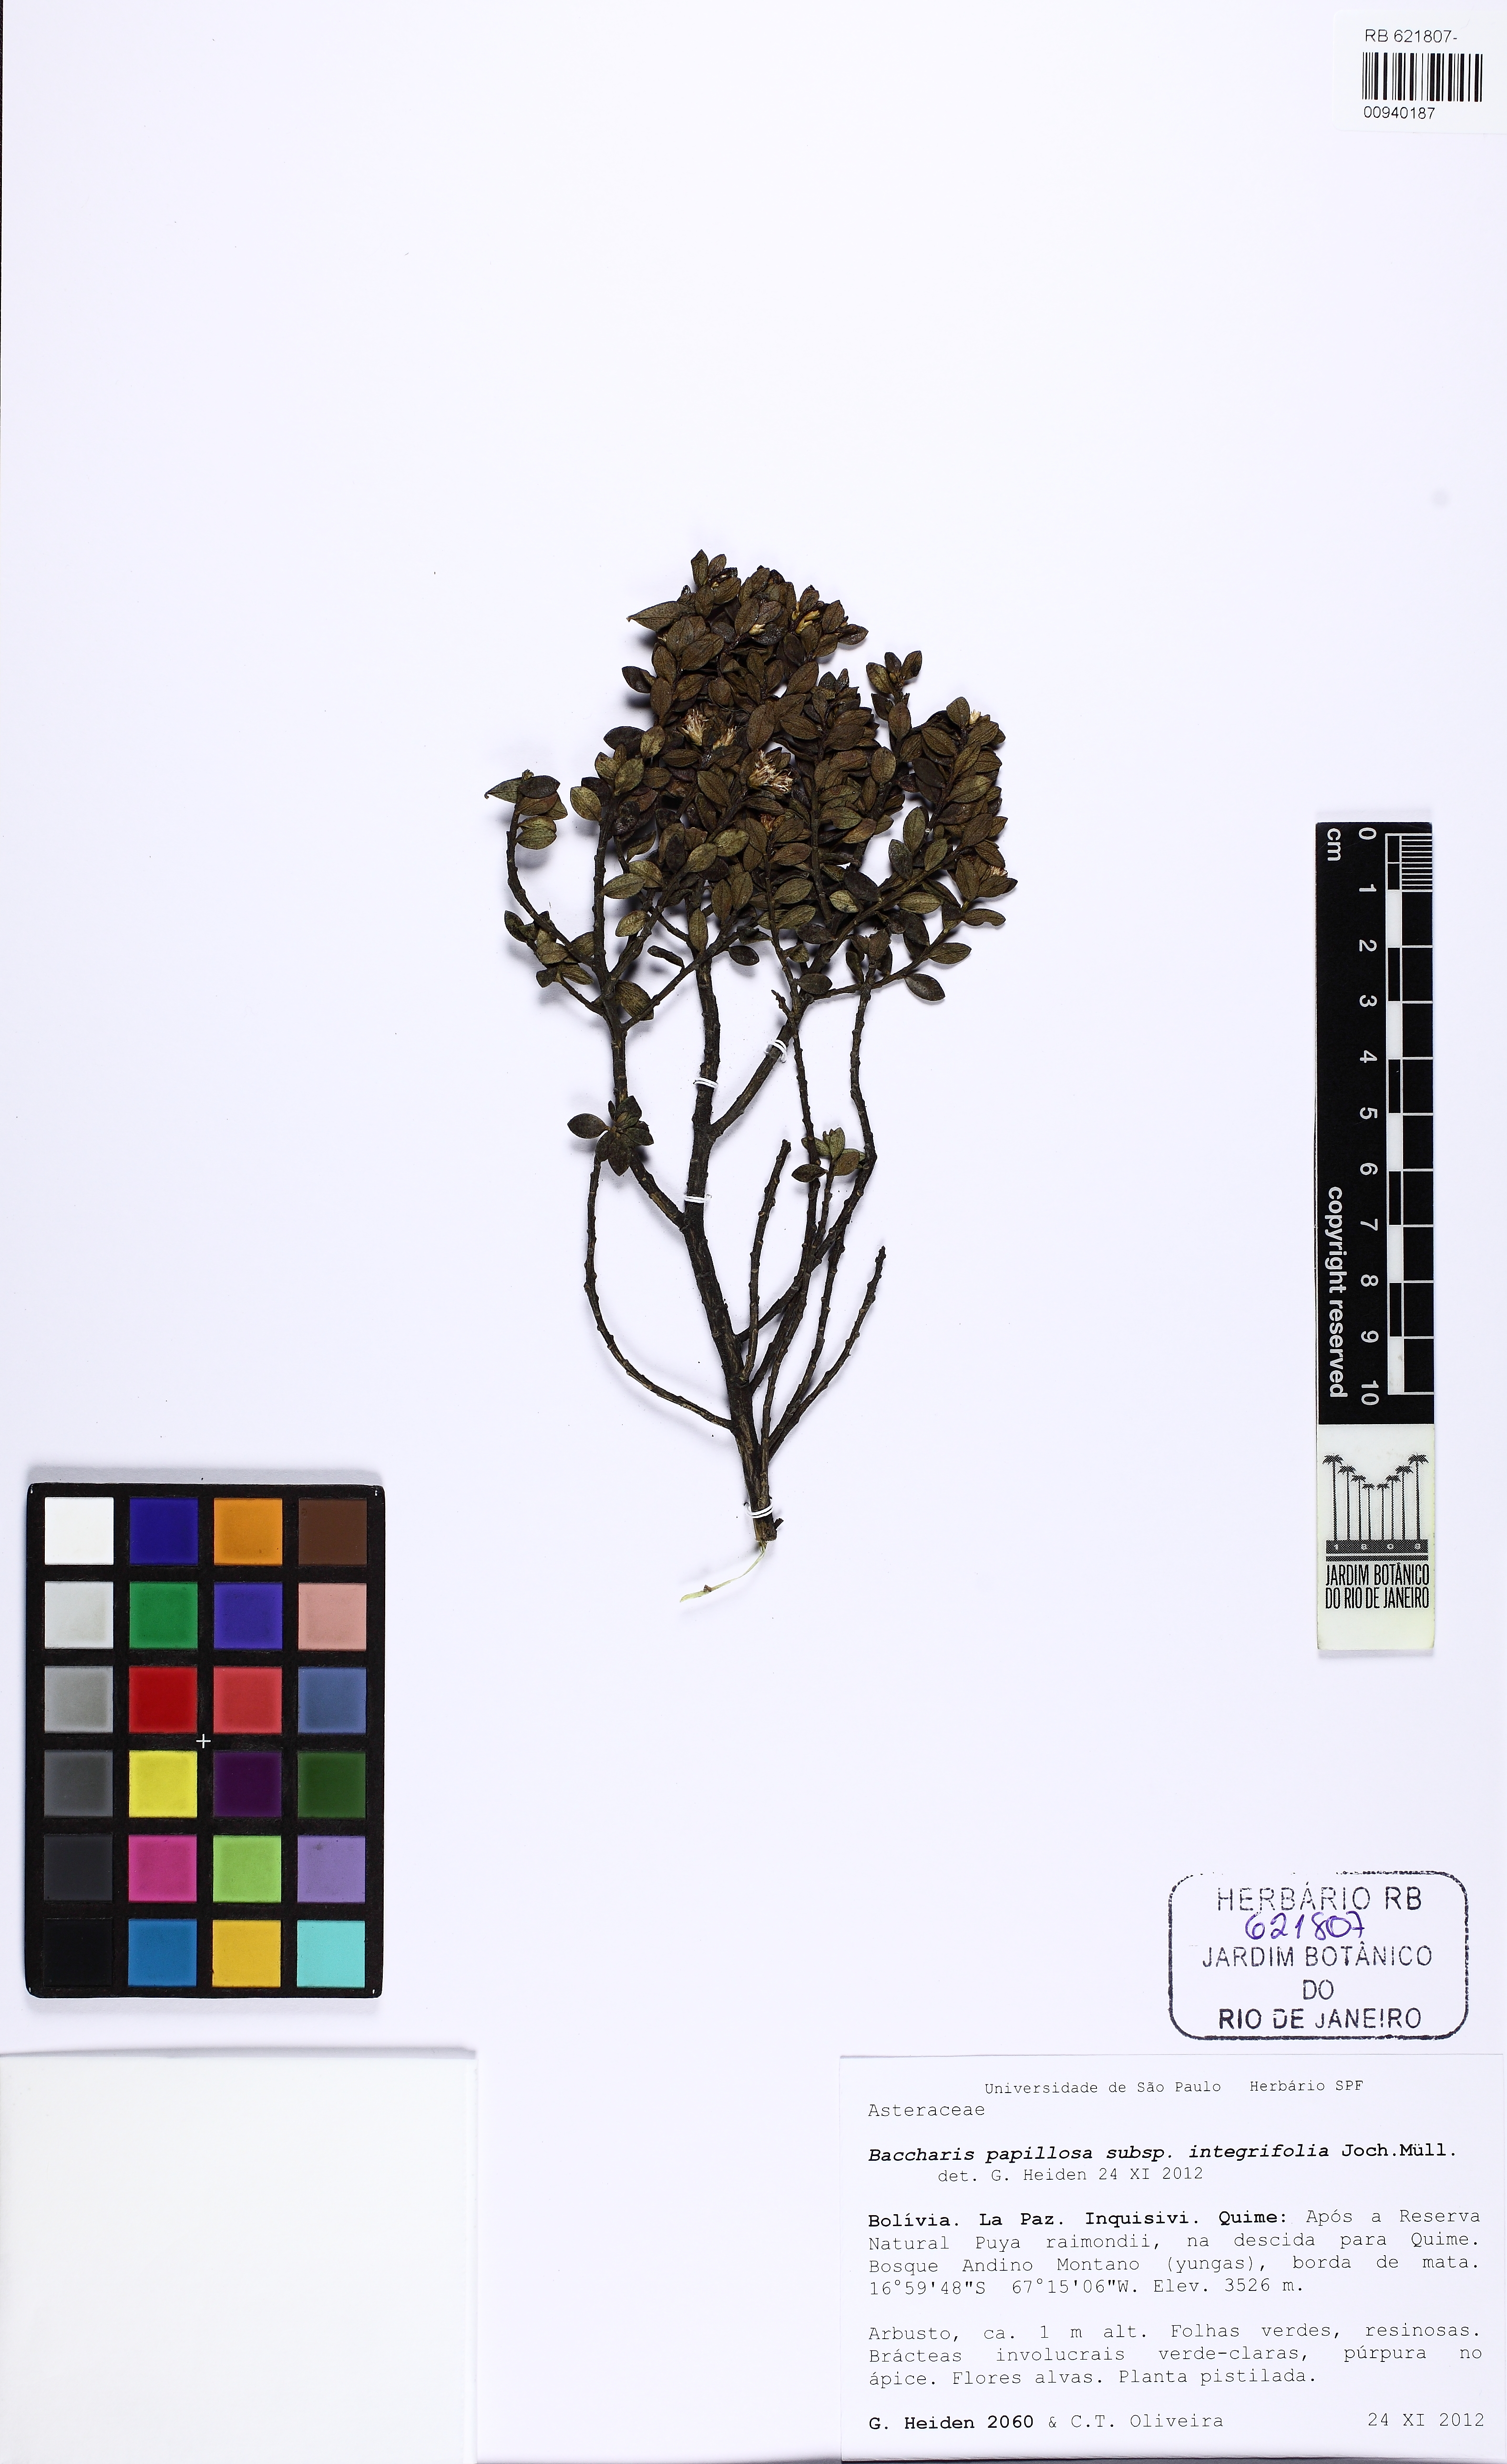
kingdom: Plantae
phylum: Tracheophyta
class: Magnoliopsida
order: Asterales
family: Asteraceae
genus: Baccharis
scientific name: Baccharis integrifolia
